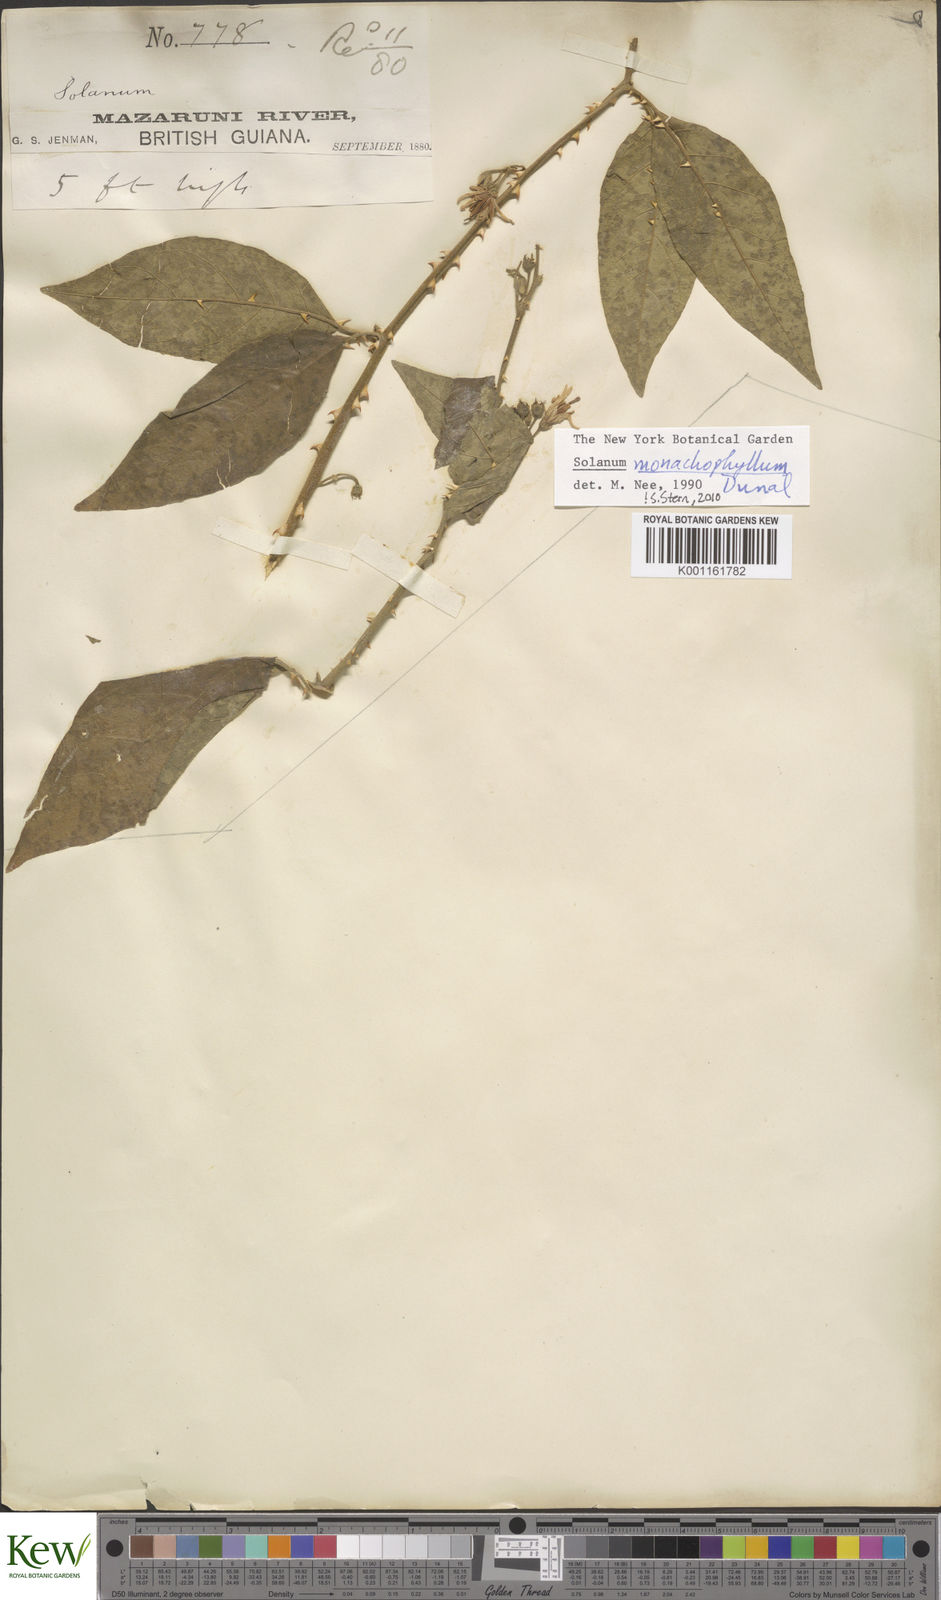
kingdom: Plantae
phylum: Tracheophyta
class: Magnoliopsida
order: Solanales
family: Solanaceae
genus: Solanum
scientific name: Solanum monachophyllum
